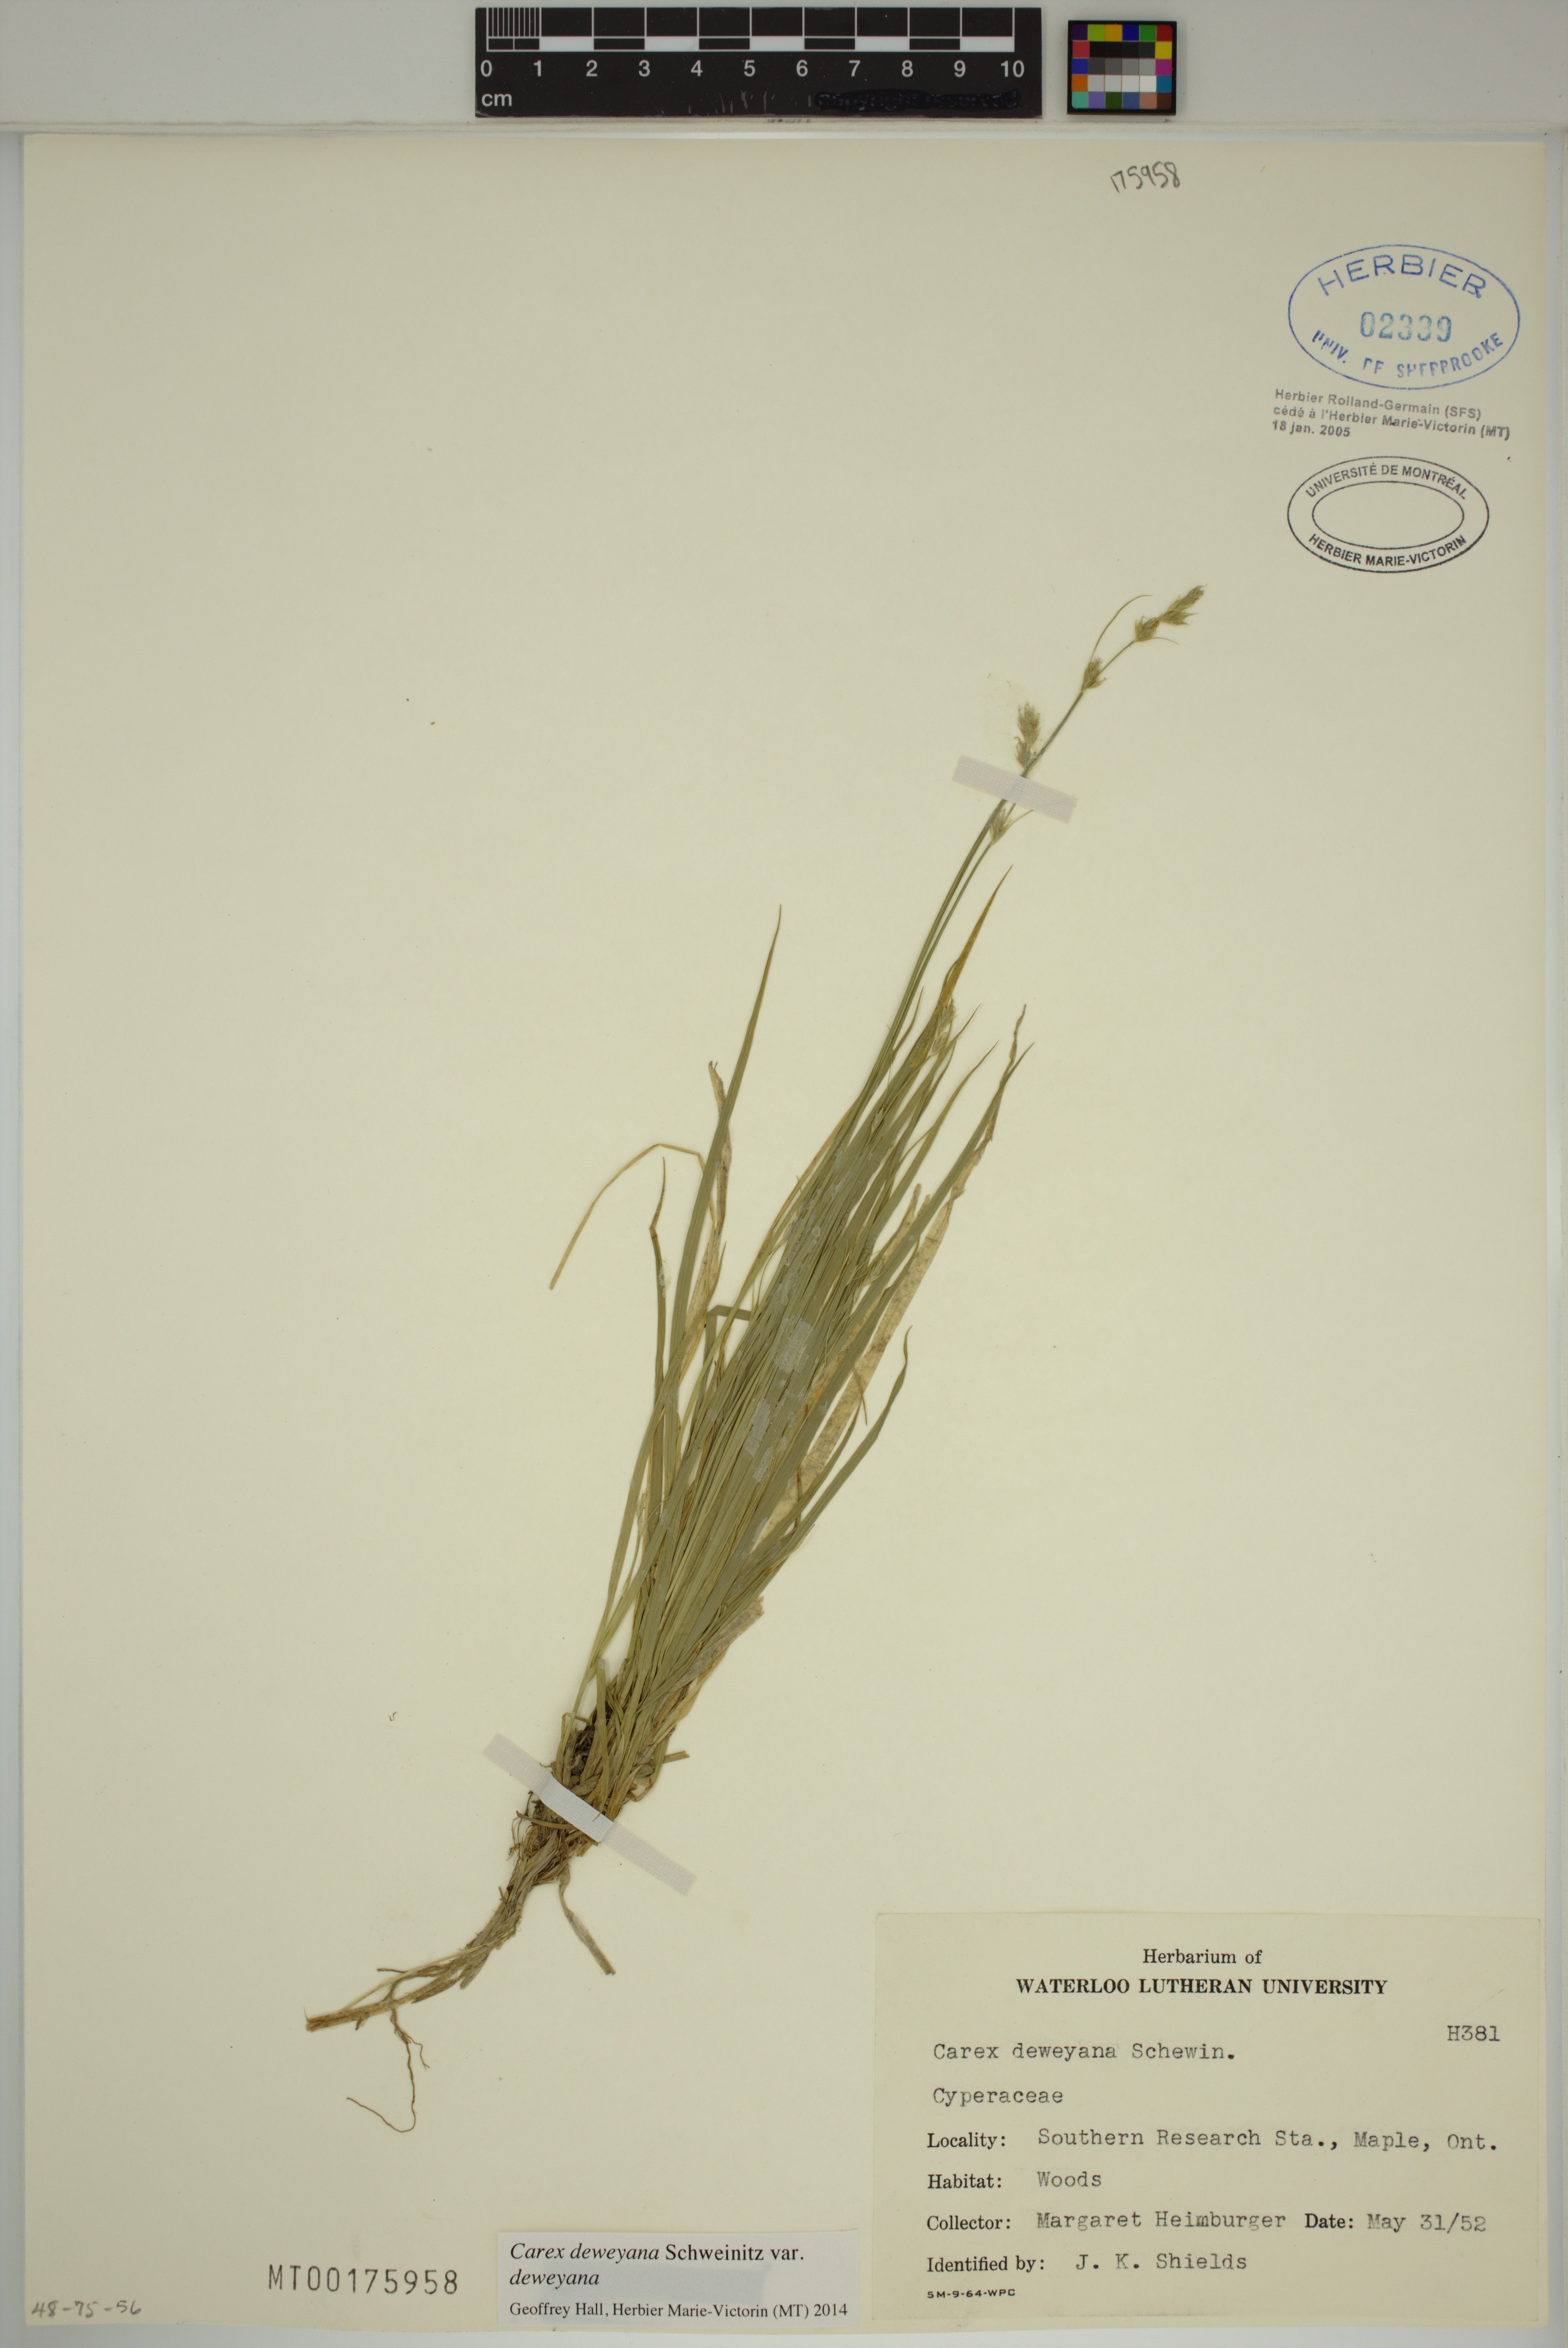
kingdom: Plantae
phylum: Tracheophyta
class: Liliopsida
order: Poales
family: Cyperaceae
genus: Carex
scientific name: Carex deweyana
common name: Dewey's sedge
